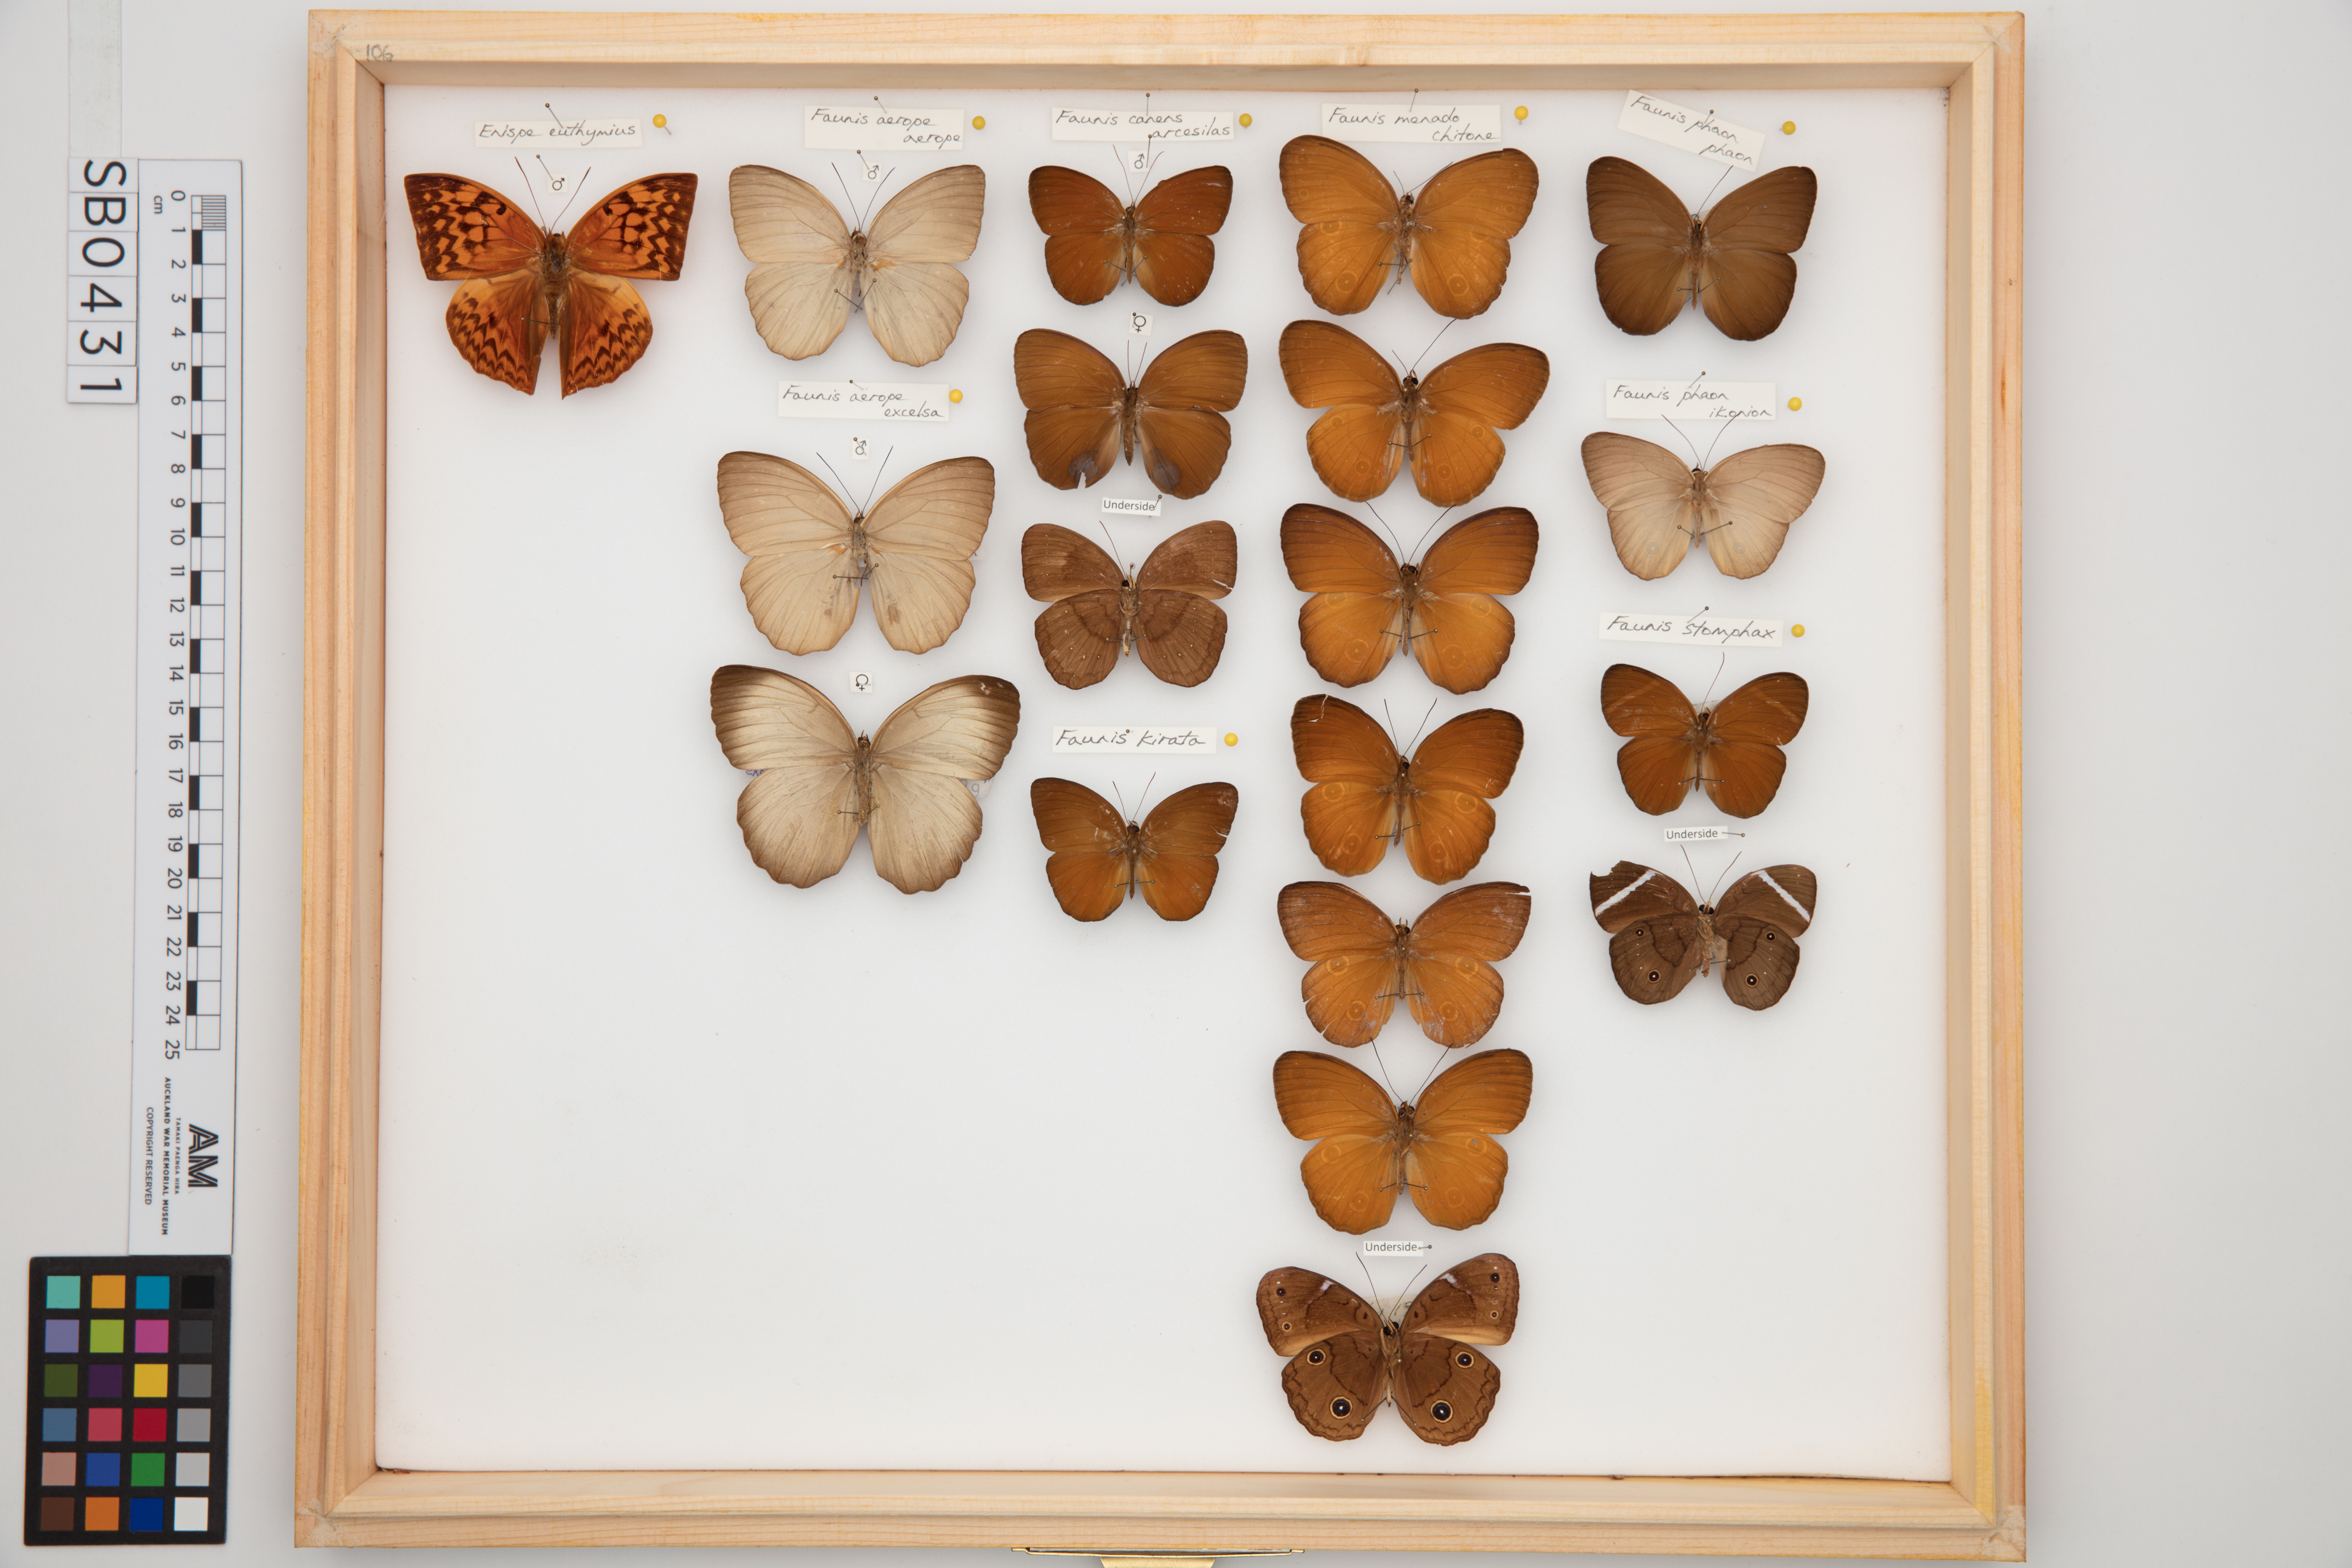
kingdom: Animalia
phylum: Arthropoda
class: Insecta
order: Lepidoptera
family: Nymphalidae
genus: Enispe
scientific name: Enispe euthymnius
